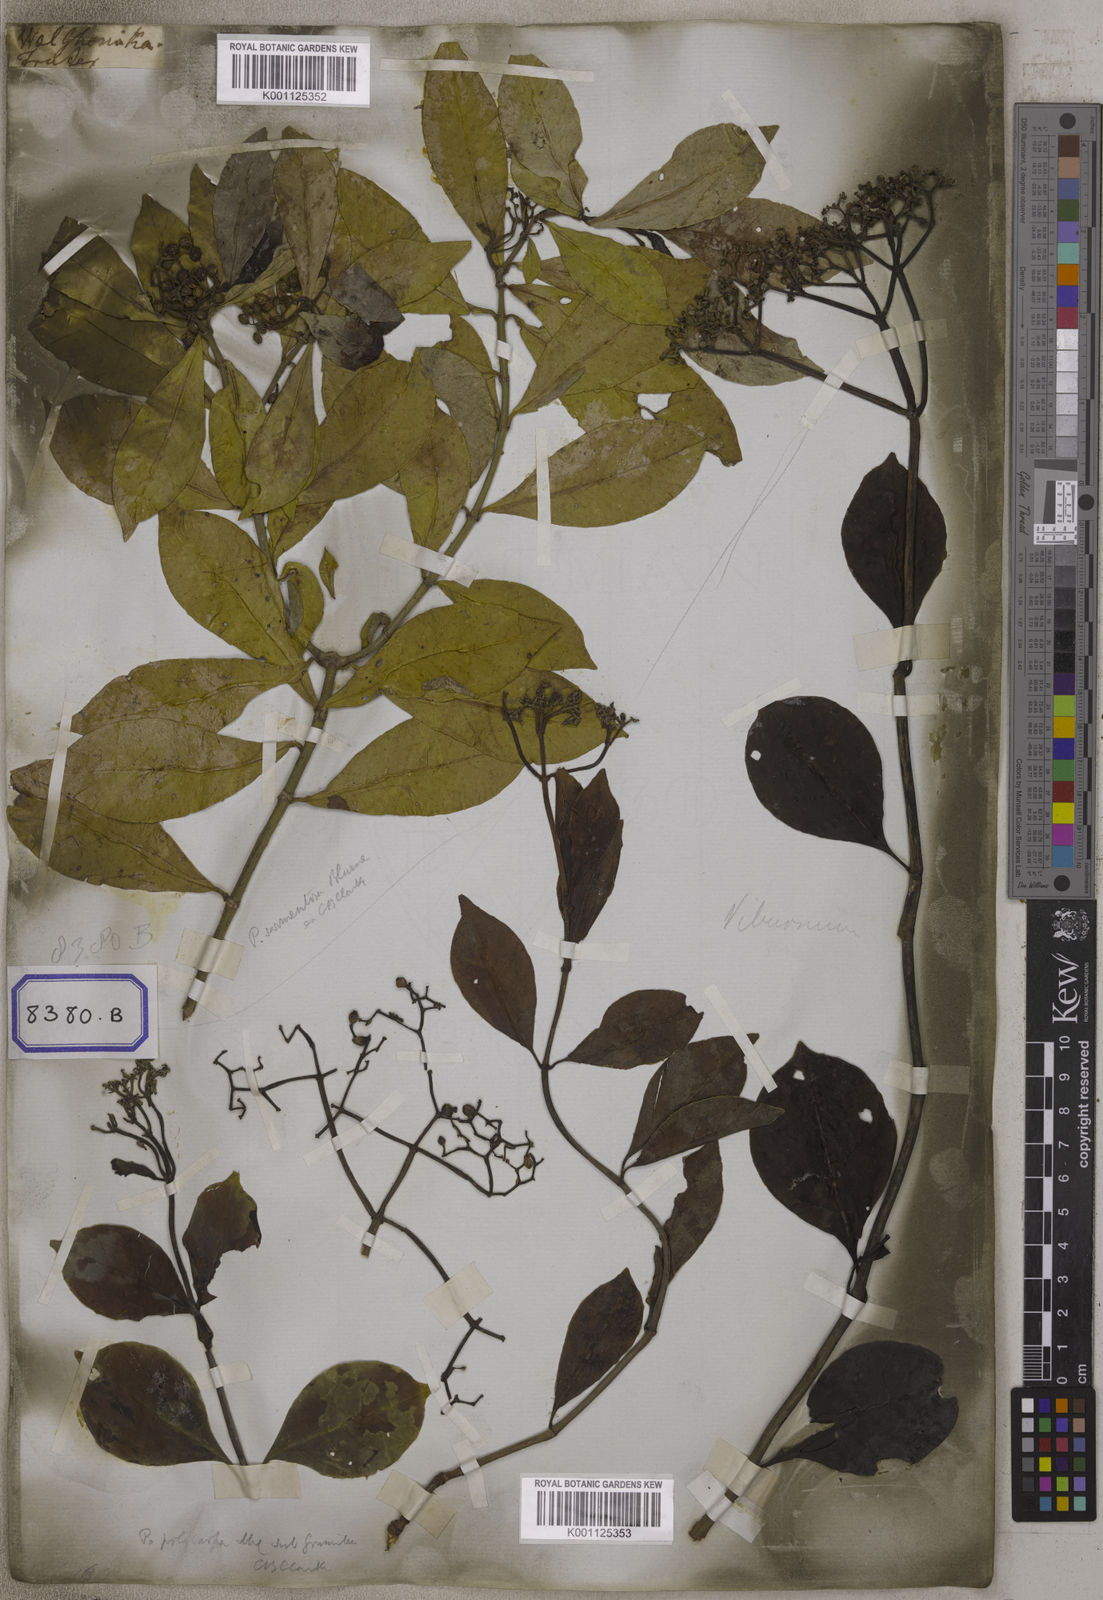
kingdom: Plantae
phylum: Tracheophyta
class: Magnoliopsida
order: Gentianales
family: Rubiaceae
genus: Psychotria
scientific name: Psychotria
